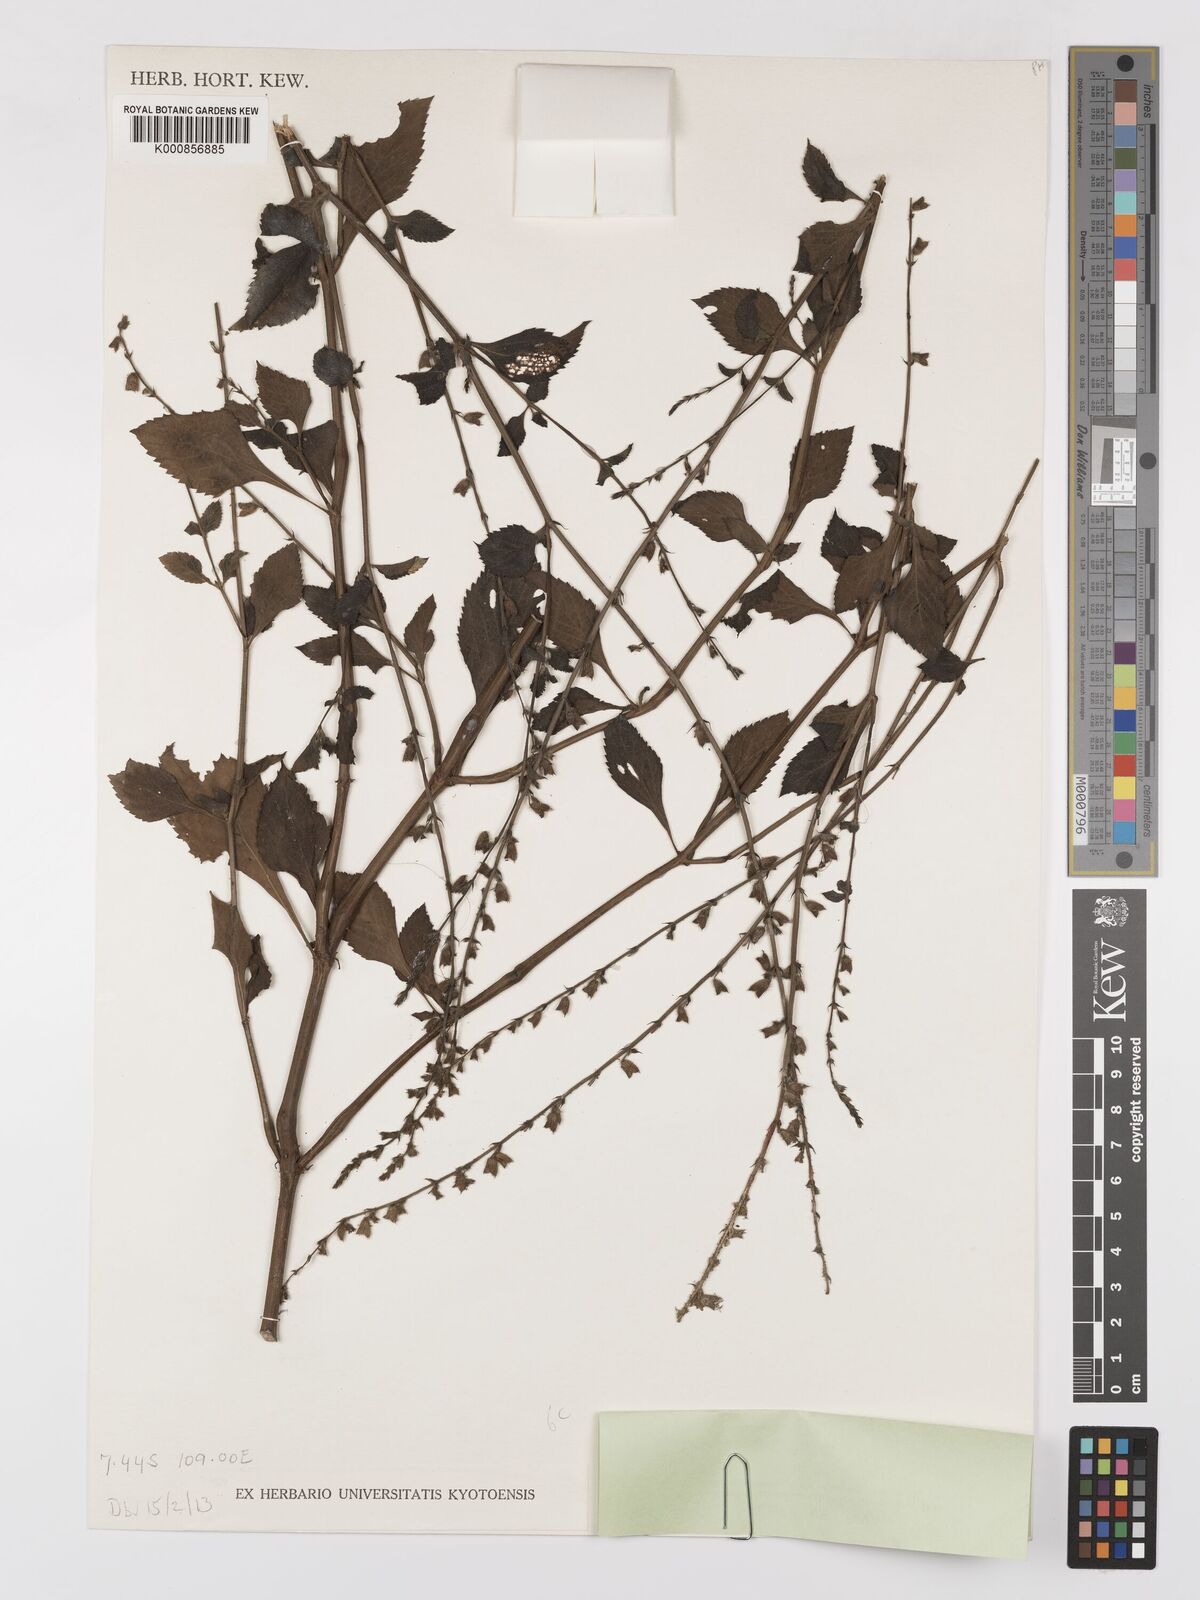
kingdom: Plantae
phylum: Tracheophyta
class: Magnoliopsida
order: Lamiales
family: Lamiaceae
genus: Salvia
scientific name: Salvia misella
